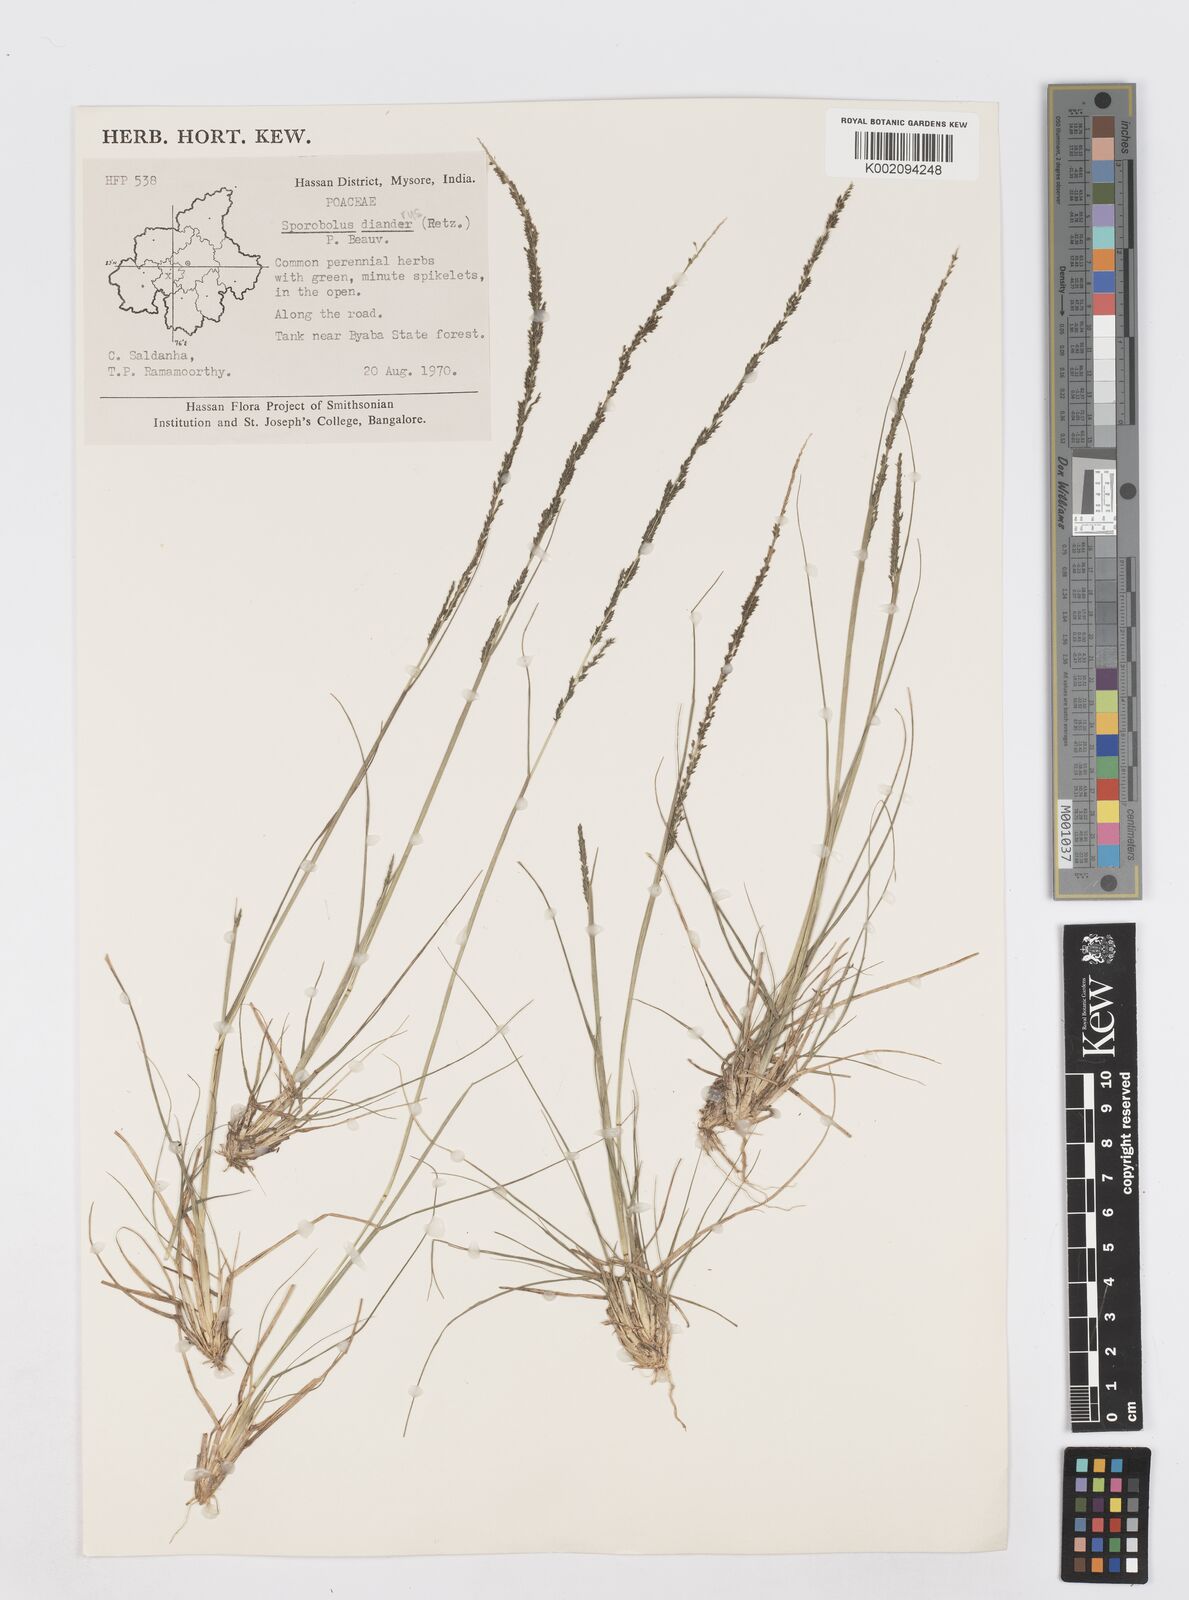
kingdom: Plantae
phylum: Tracheophyta
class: Liliopsida
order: Poales
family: Poaceae
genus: Sporobolus
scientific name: Sporobolus
